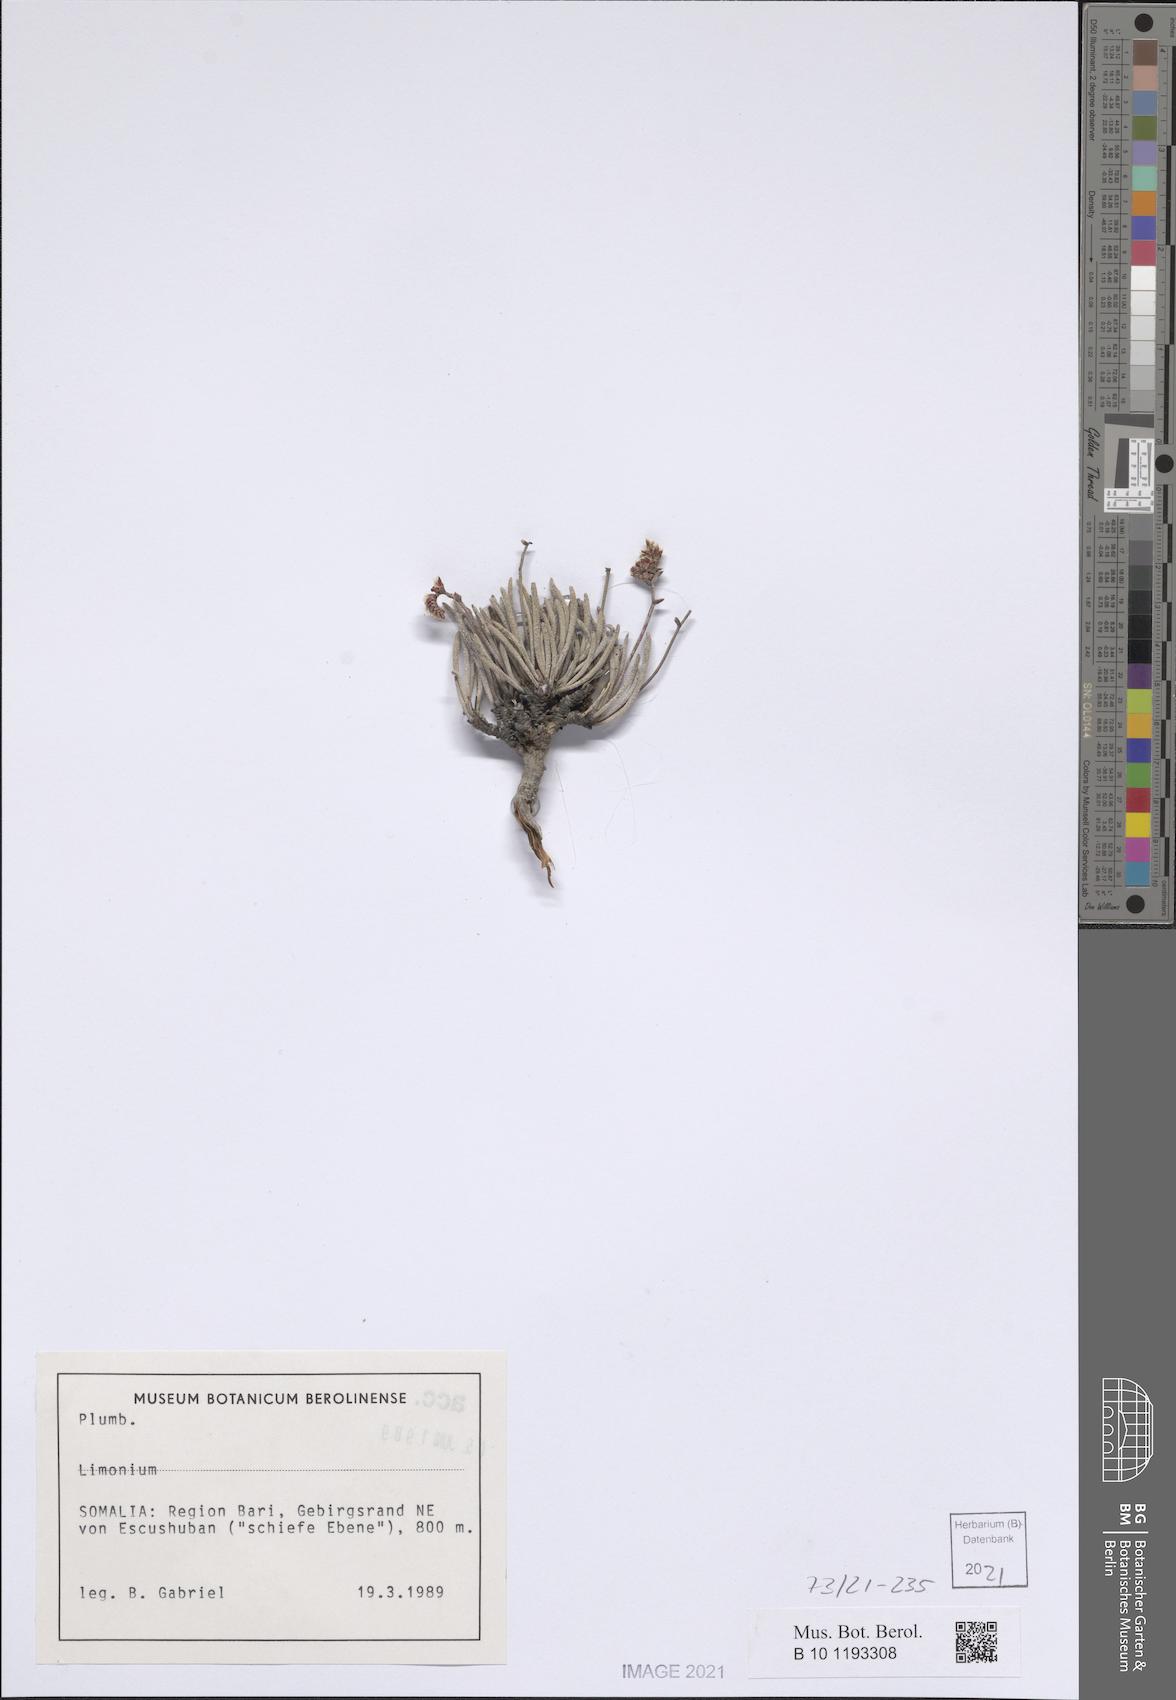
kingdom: Plantae
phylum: Tracheophyta
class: Magnoliopsida
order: Caryophyllales
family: Plumbaginaceae
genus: Limonium
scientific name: Limonium
